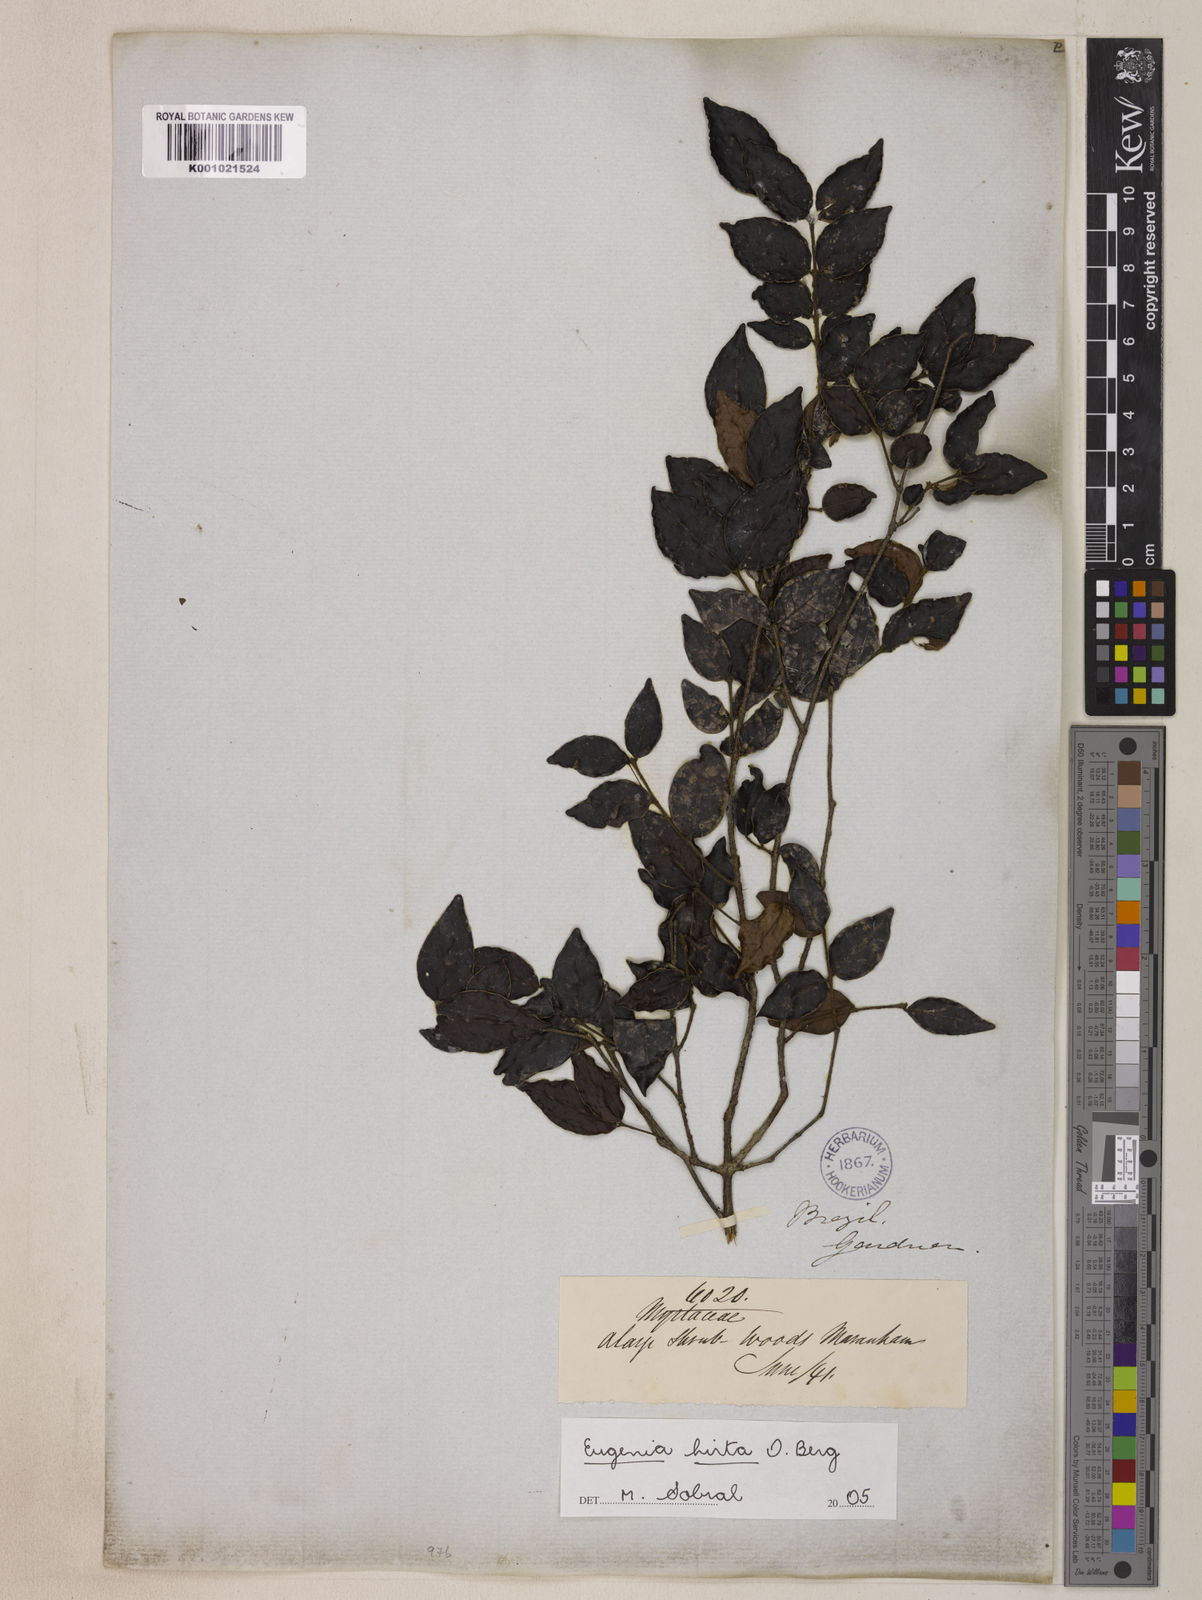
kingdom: Plantae
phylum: Tracheophyta
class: Magnoliopsida
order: Myrtales
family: Myrtaceae
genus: Eugenia
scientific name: Eugenia hirta
